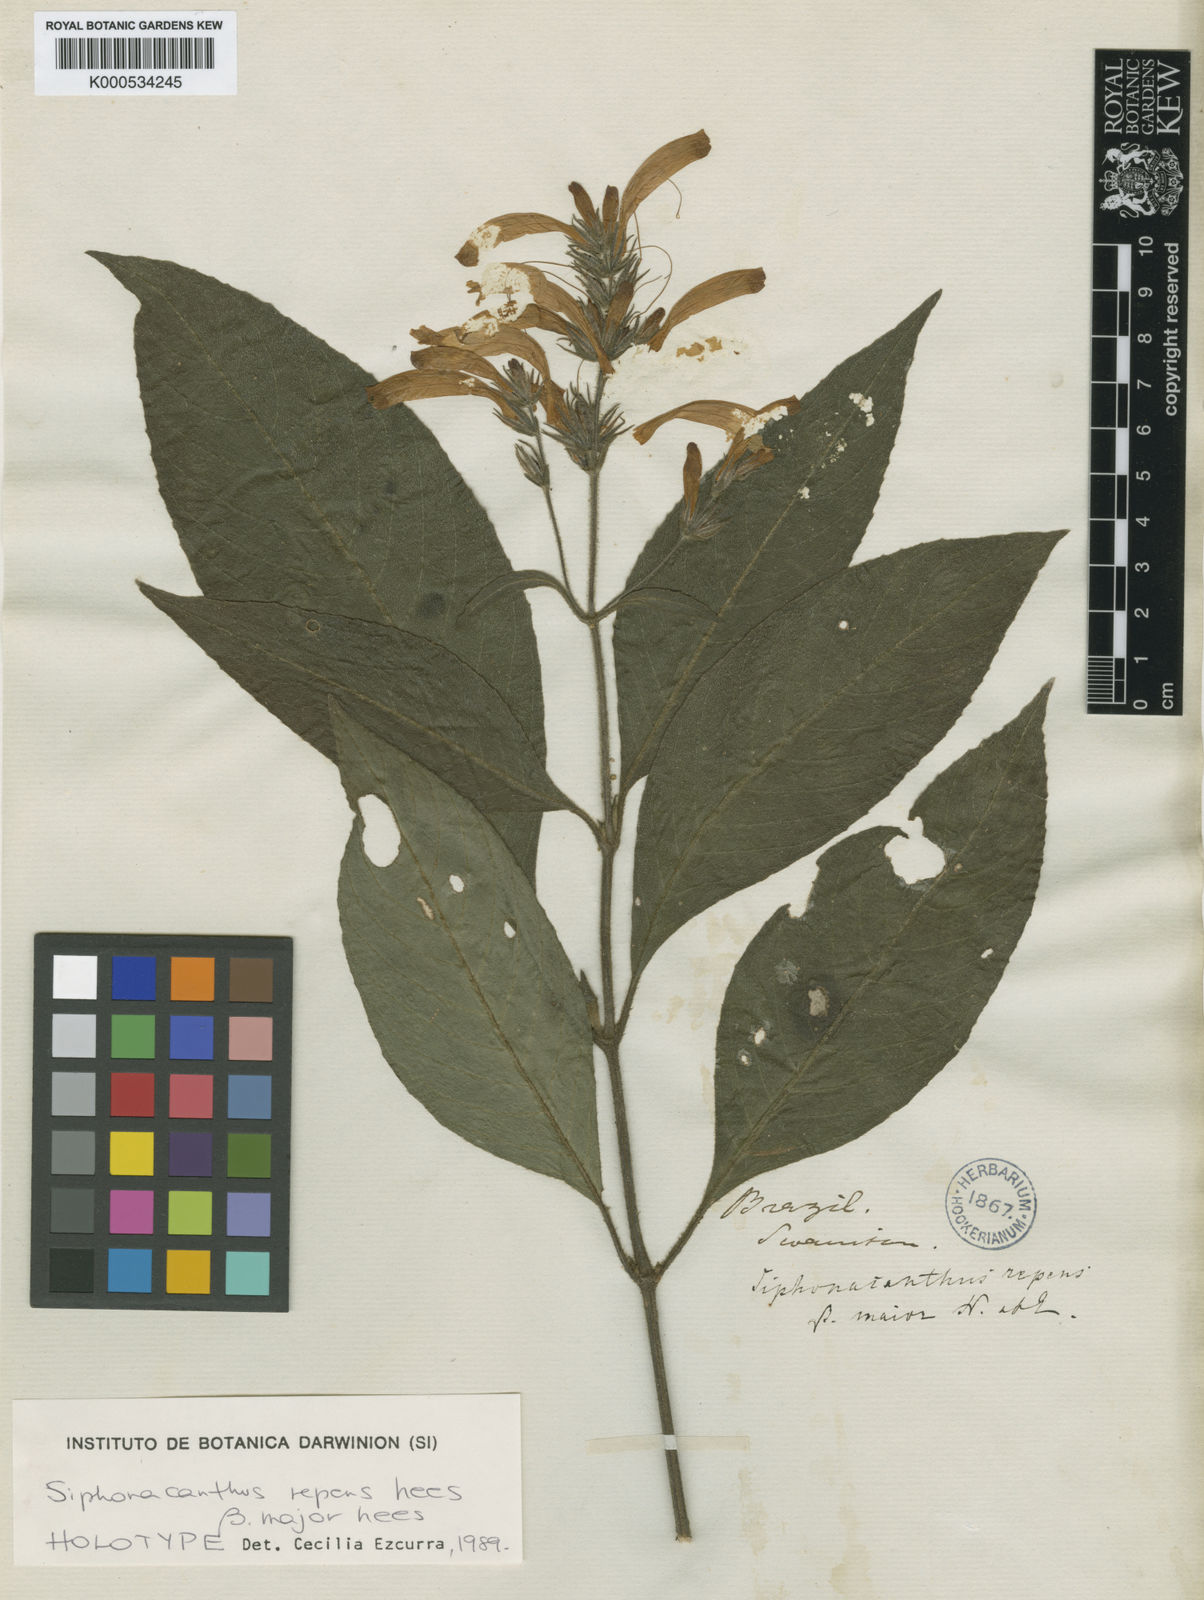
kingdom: Plantae
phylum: Tracheophyta
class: Magnoliopsida
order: Lamiales
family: Acanthaceae
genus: Ruellia
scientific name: Ruellia repens
